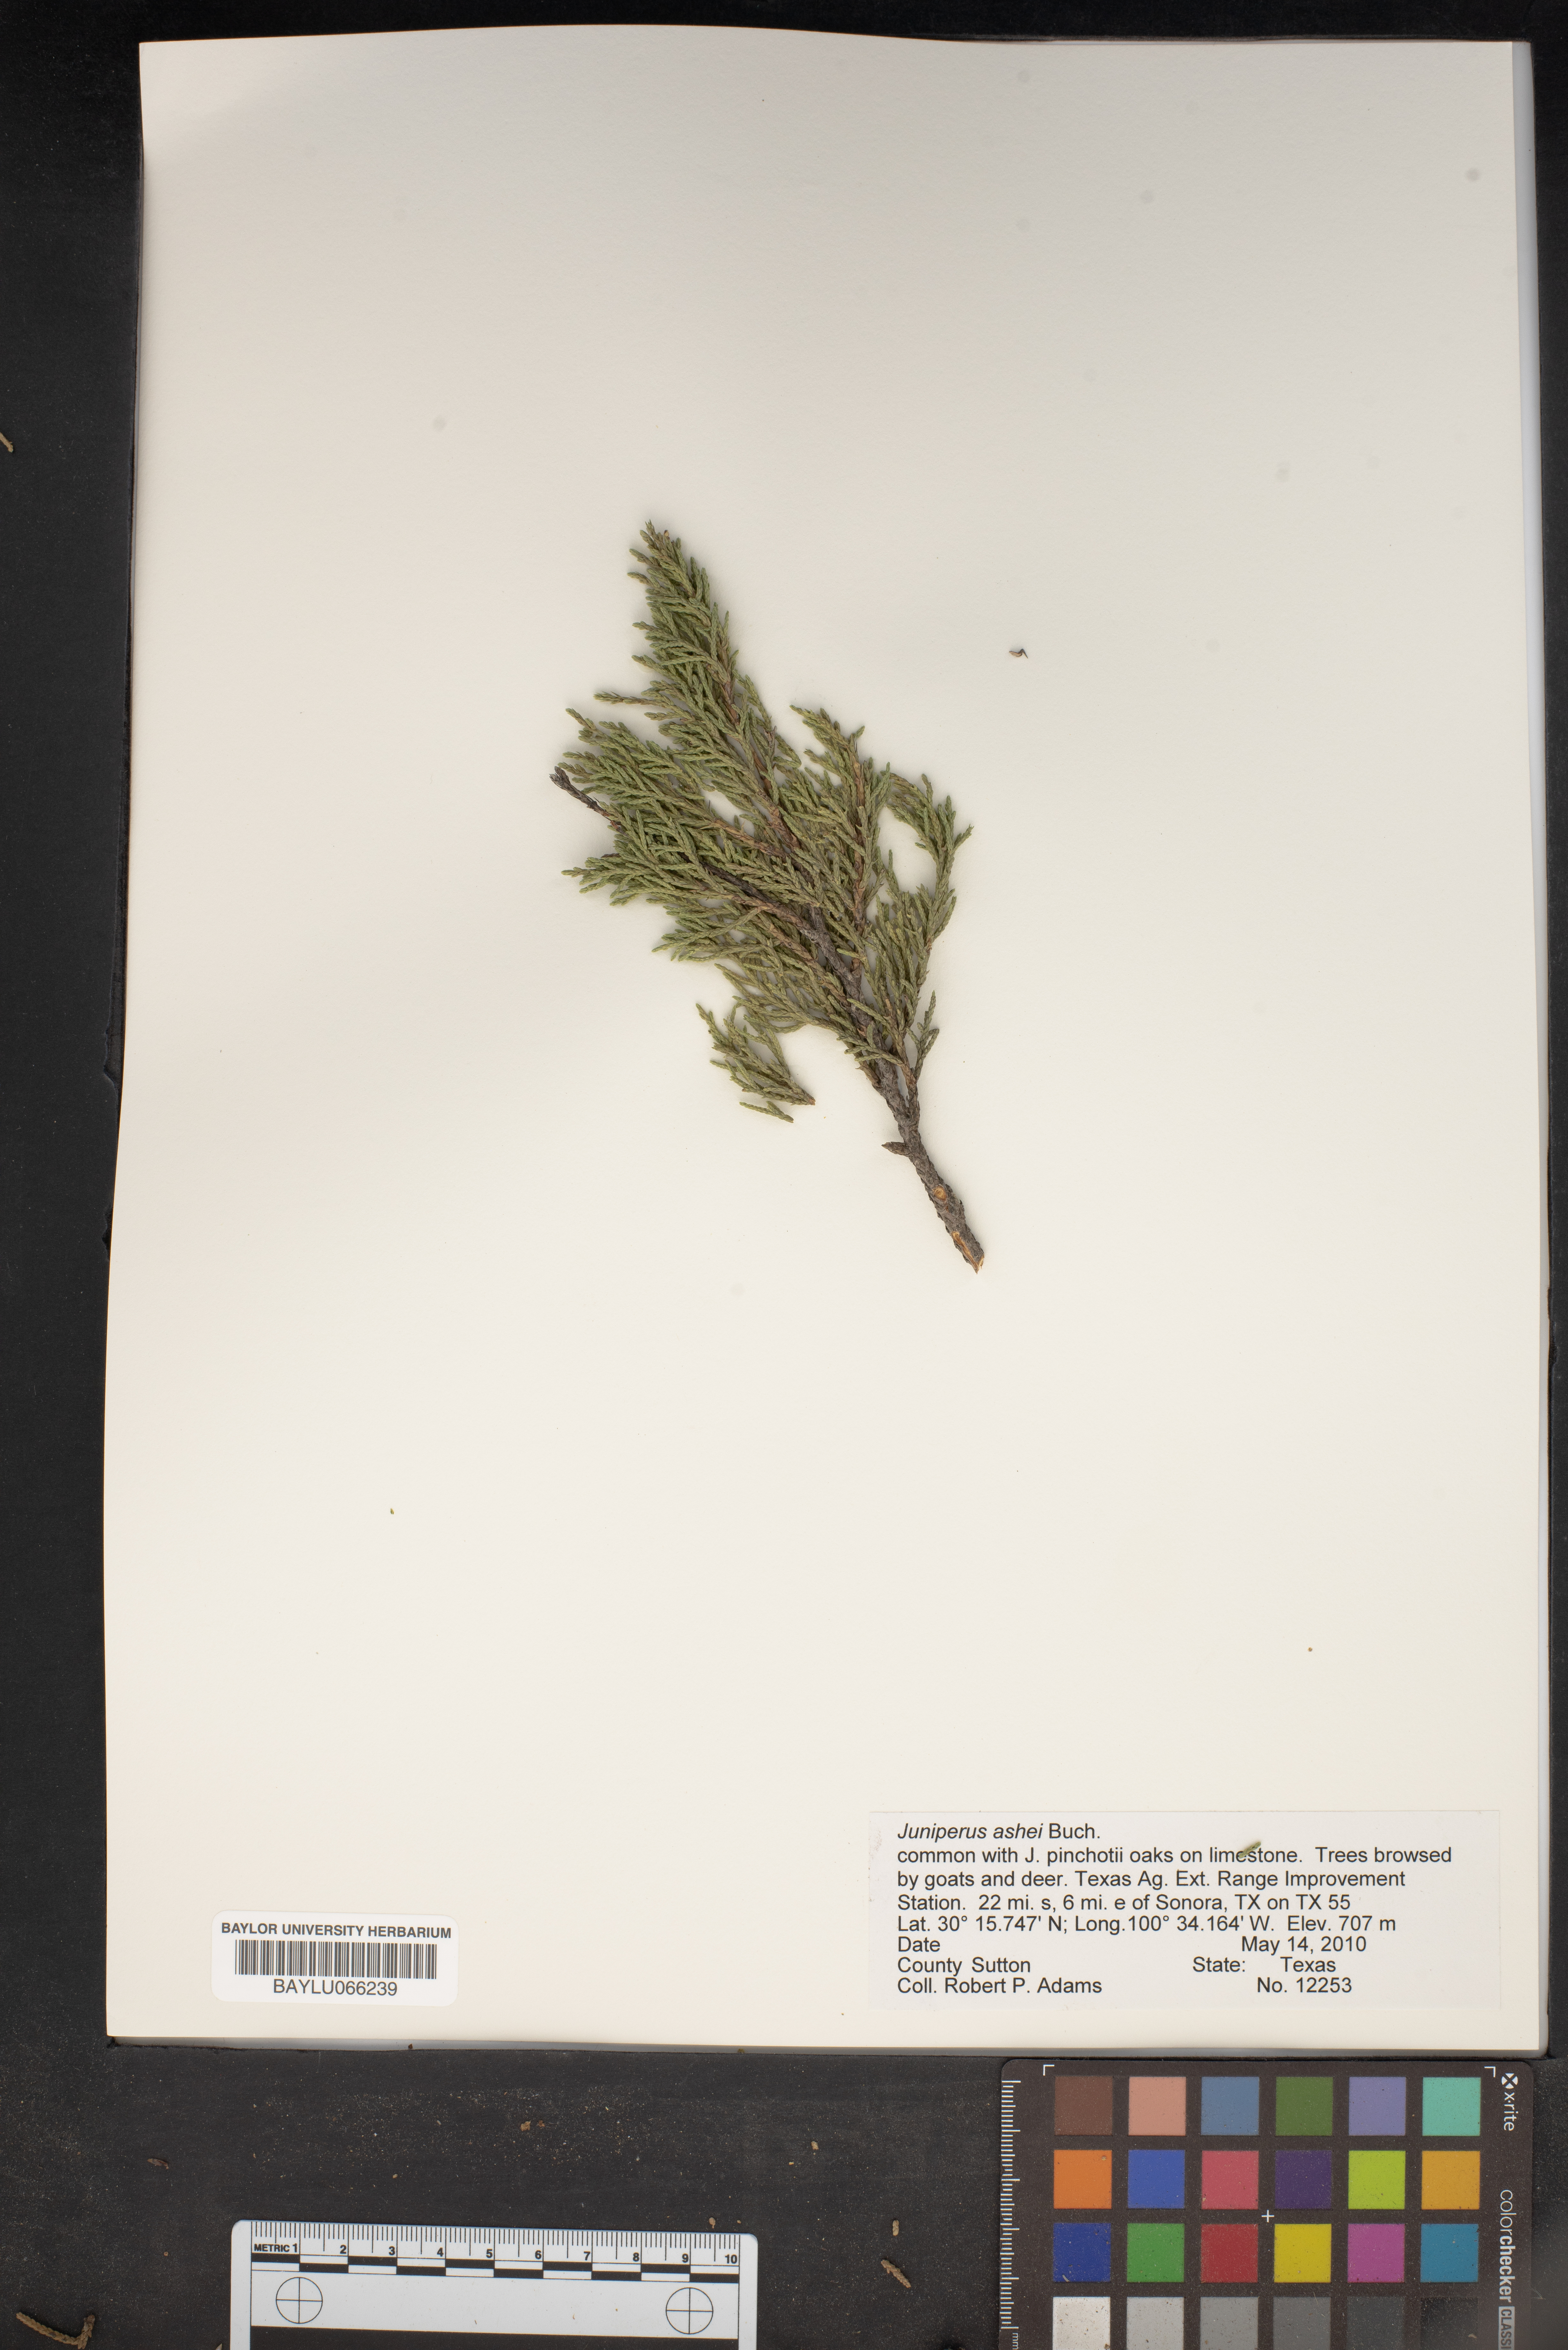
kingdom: Plantae
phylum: Tracheophyta
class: Pinopsida
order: Pinales
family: Cupressaceae
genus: Juniperus
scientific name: Juniperus ashei
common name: Mexican juniper
